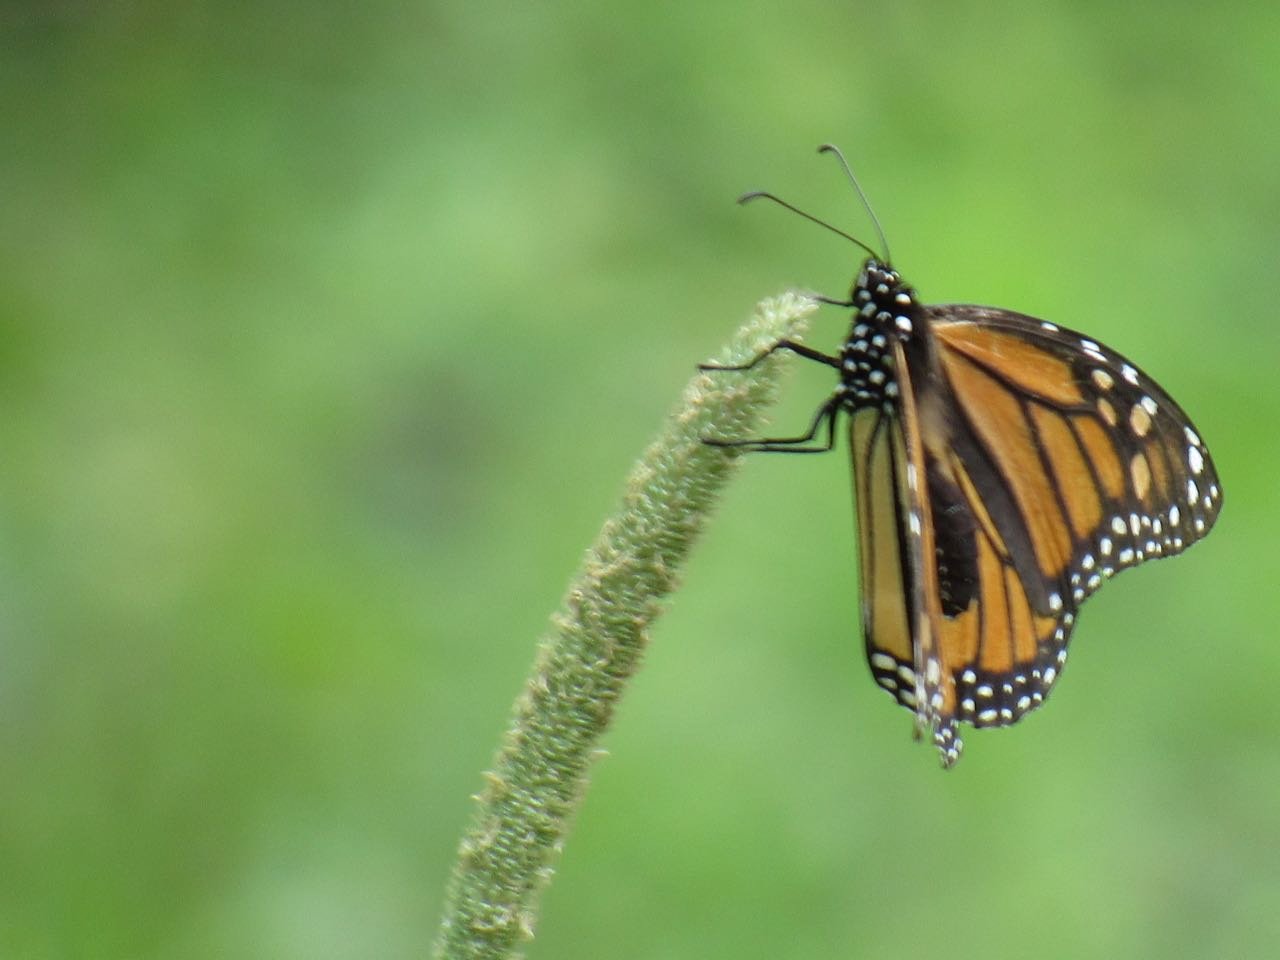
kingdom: Animalia
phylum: Arthropoda
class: Insecta
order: Lepidoptera
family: Nymphalidae
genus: Danaus
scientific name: Danaus plexippus
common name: Monarch
